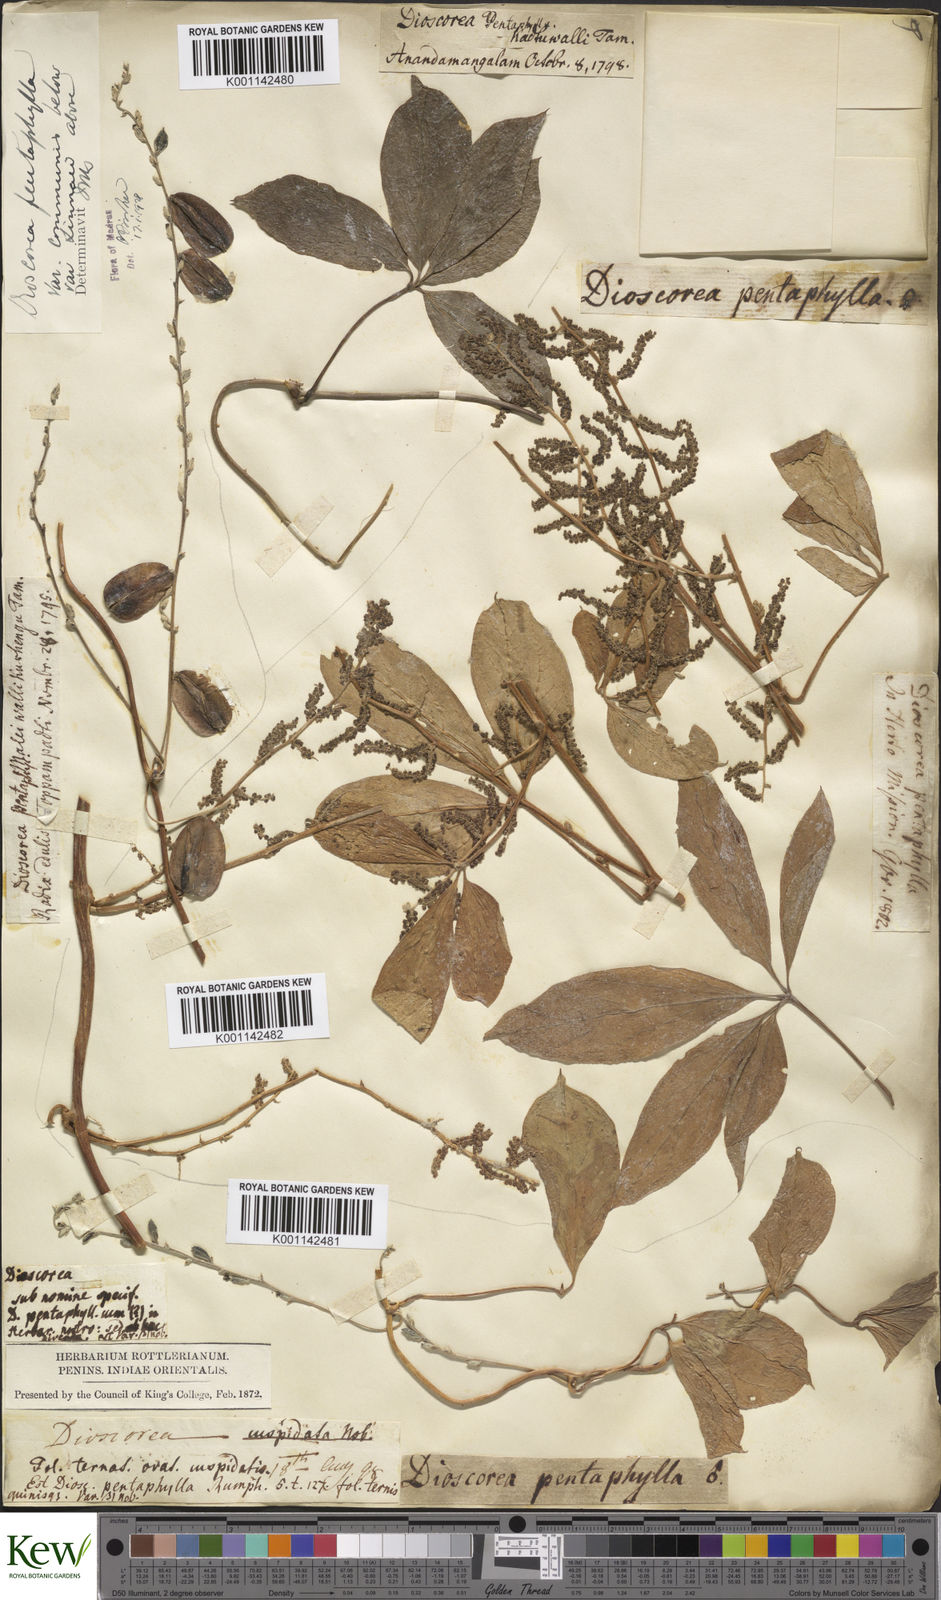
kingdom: Plantae
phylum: Tracheophyta
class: Liliopsida
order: Dioscoreales
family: Dioscoreaceae
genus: Dioscorea
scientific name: Dioscorea pentaphylla
